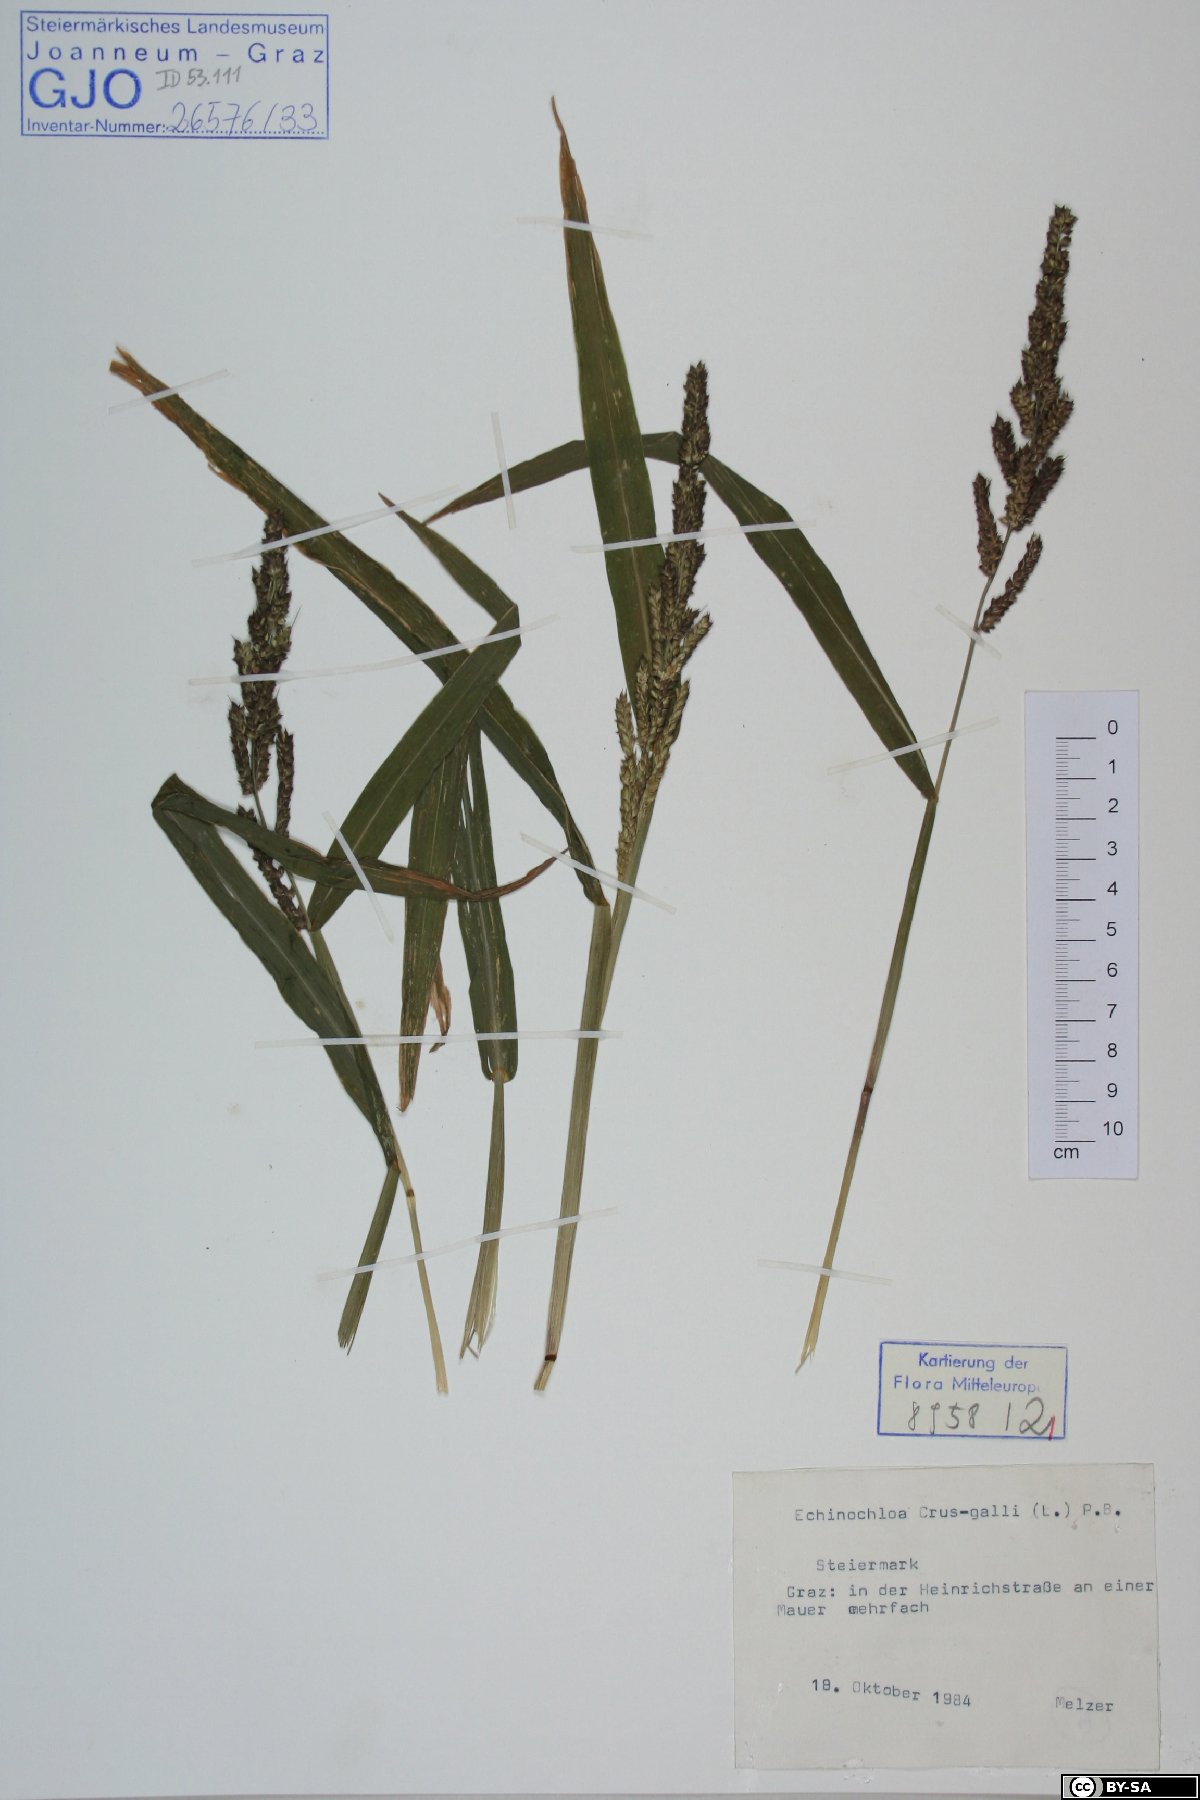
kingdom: Plantae
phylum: Tracheophyta
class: Liliopsida
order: Poales
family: Poaceae
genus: Echinochloa
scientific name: Echinochloa crus-galli
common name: Cockspur
